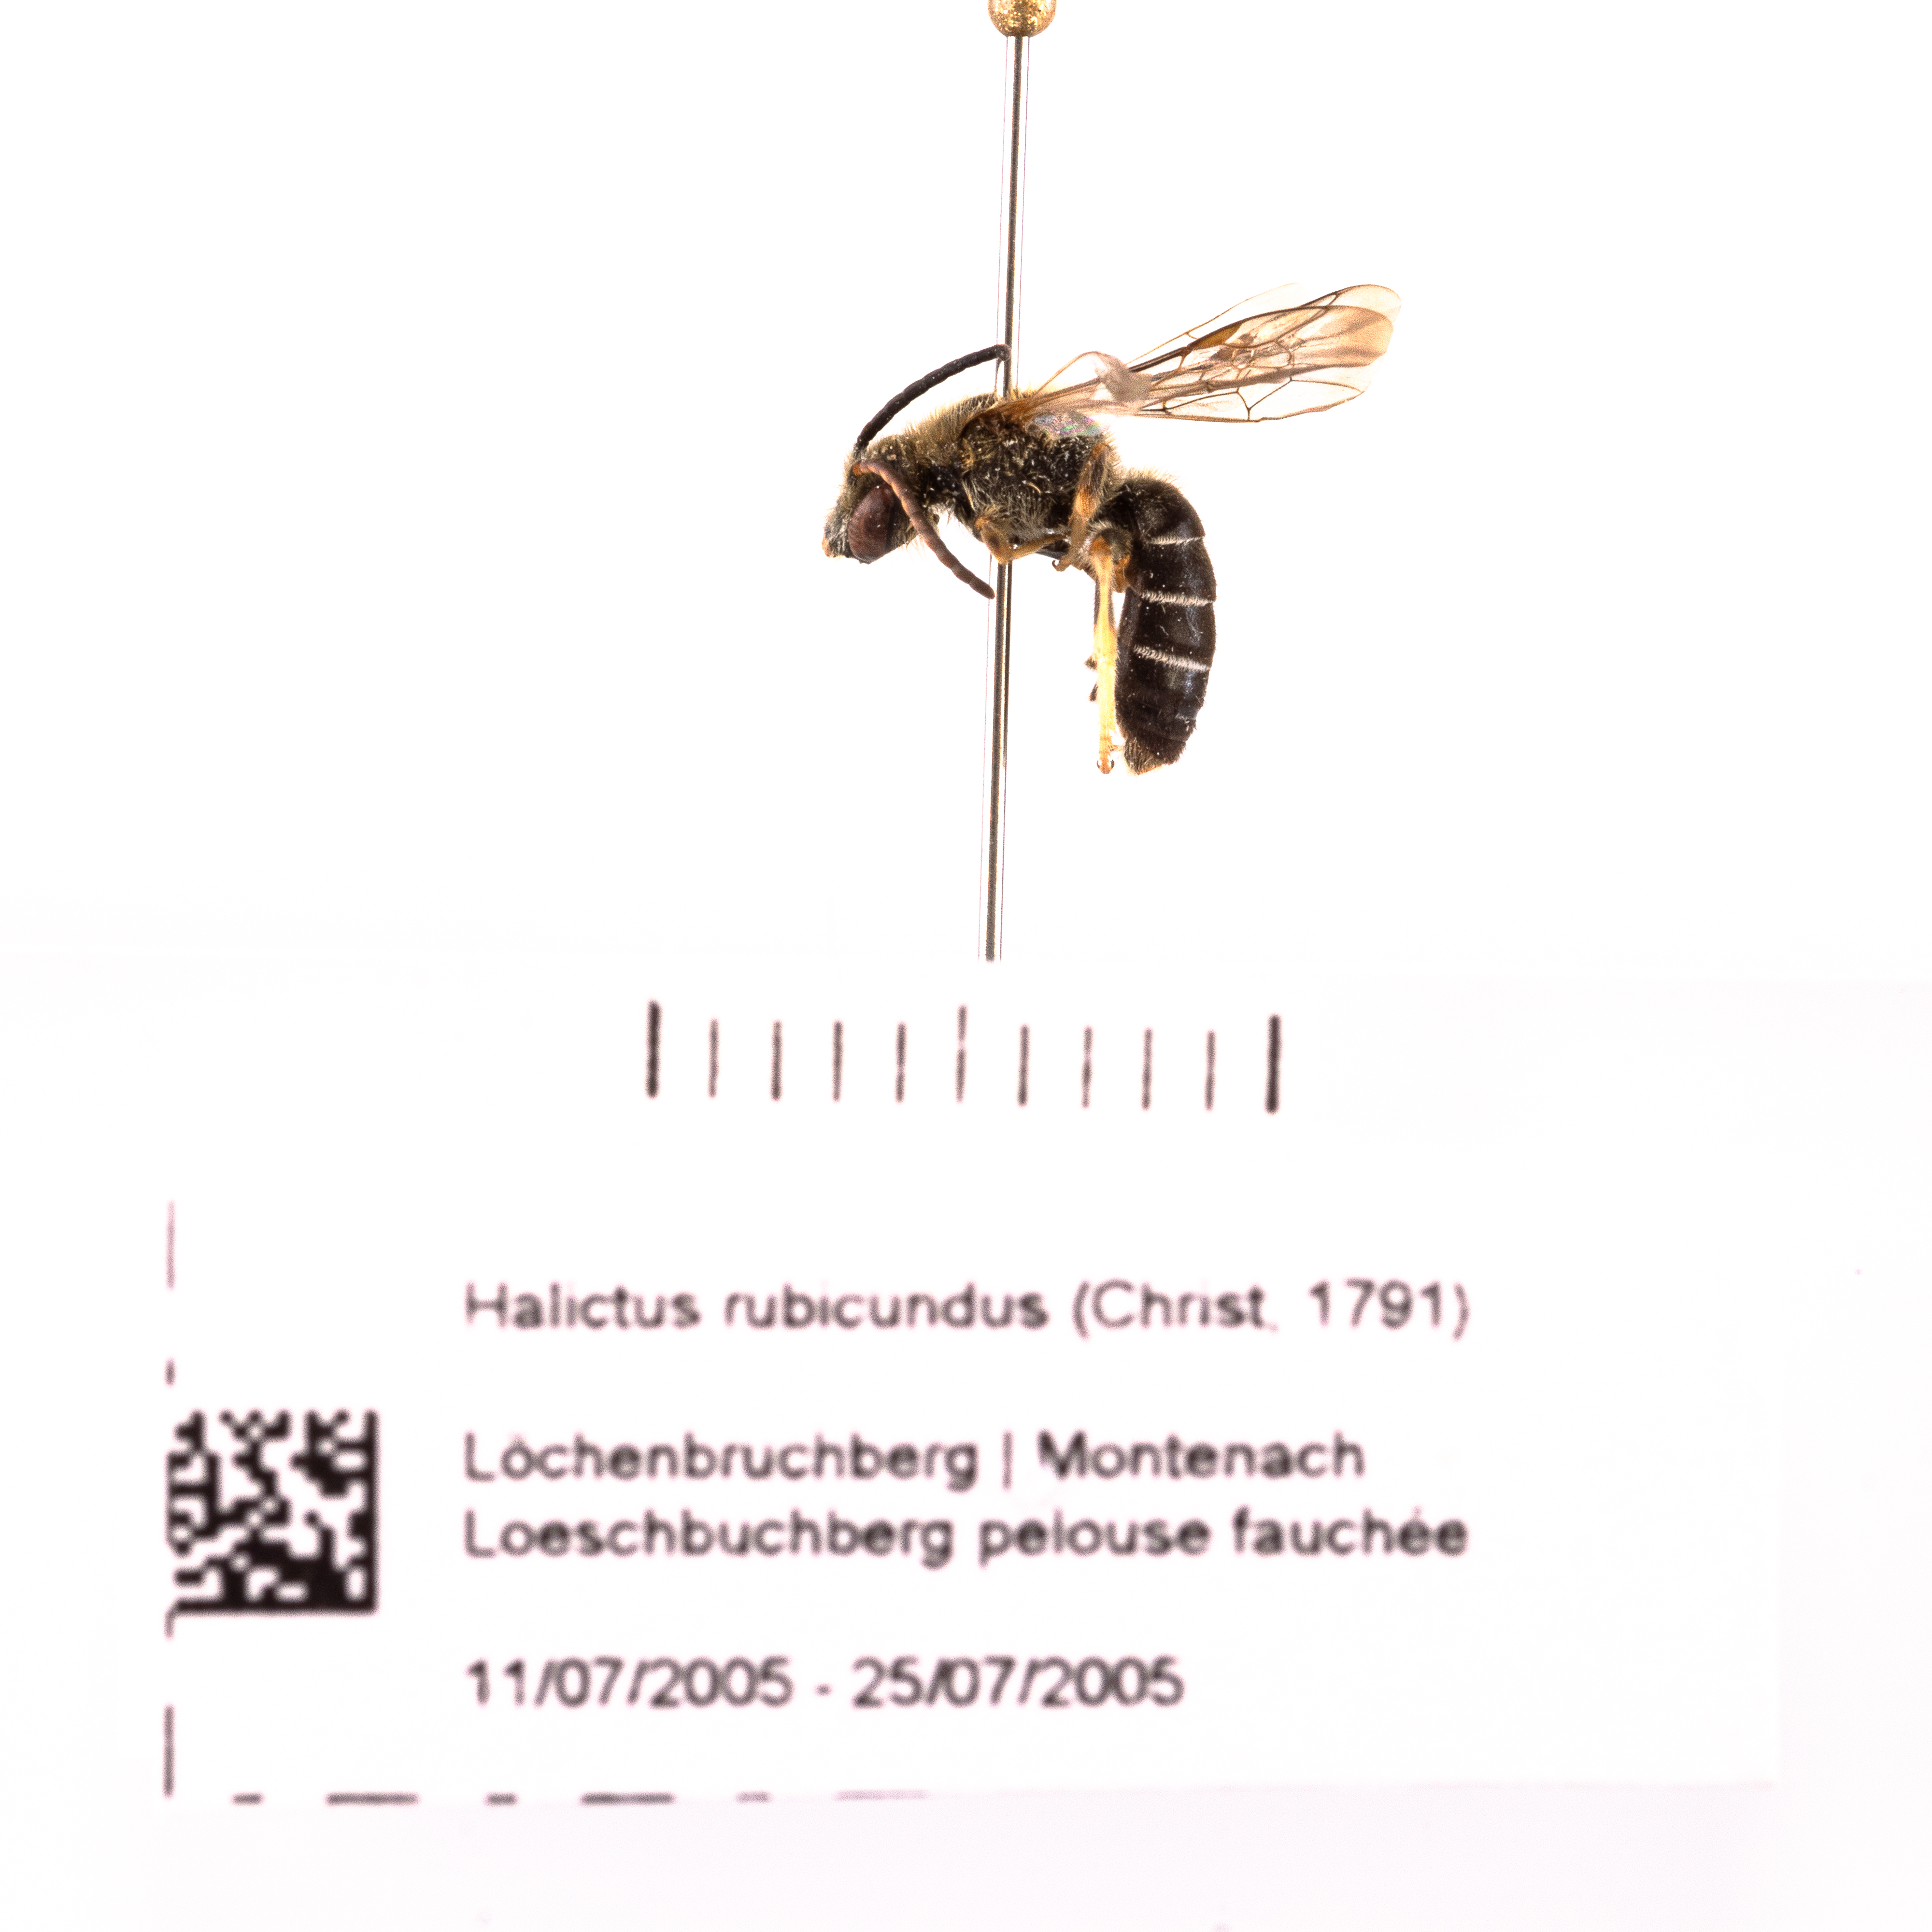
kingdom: Animalia
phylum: Arthropoda
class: Insecta
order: Hymenoptera
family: Halictidae
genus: Halictus
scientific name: Halictus rubicundus
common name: Orange-legged furrow bee
